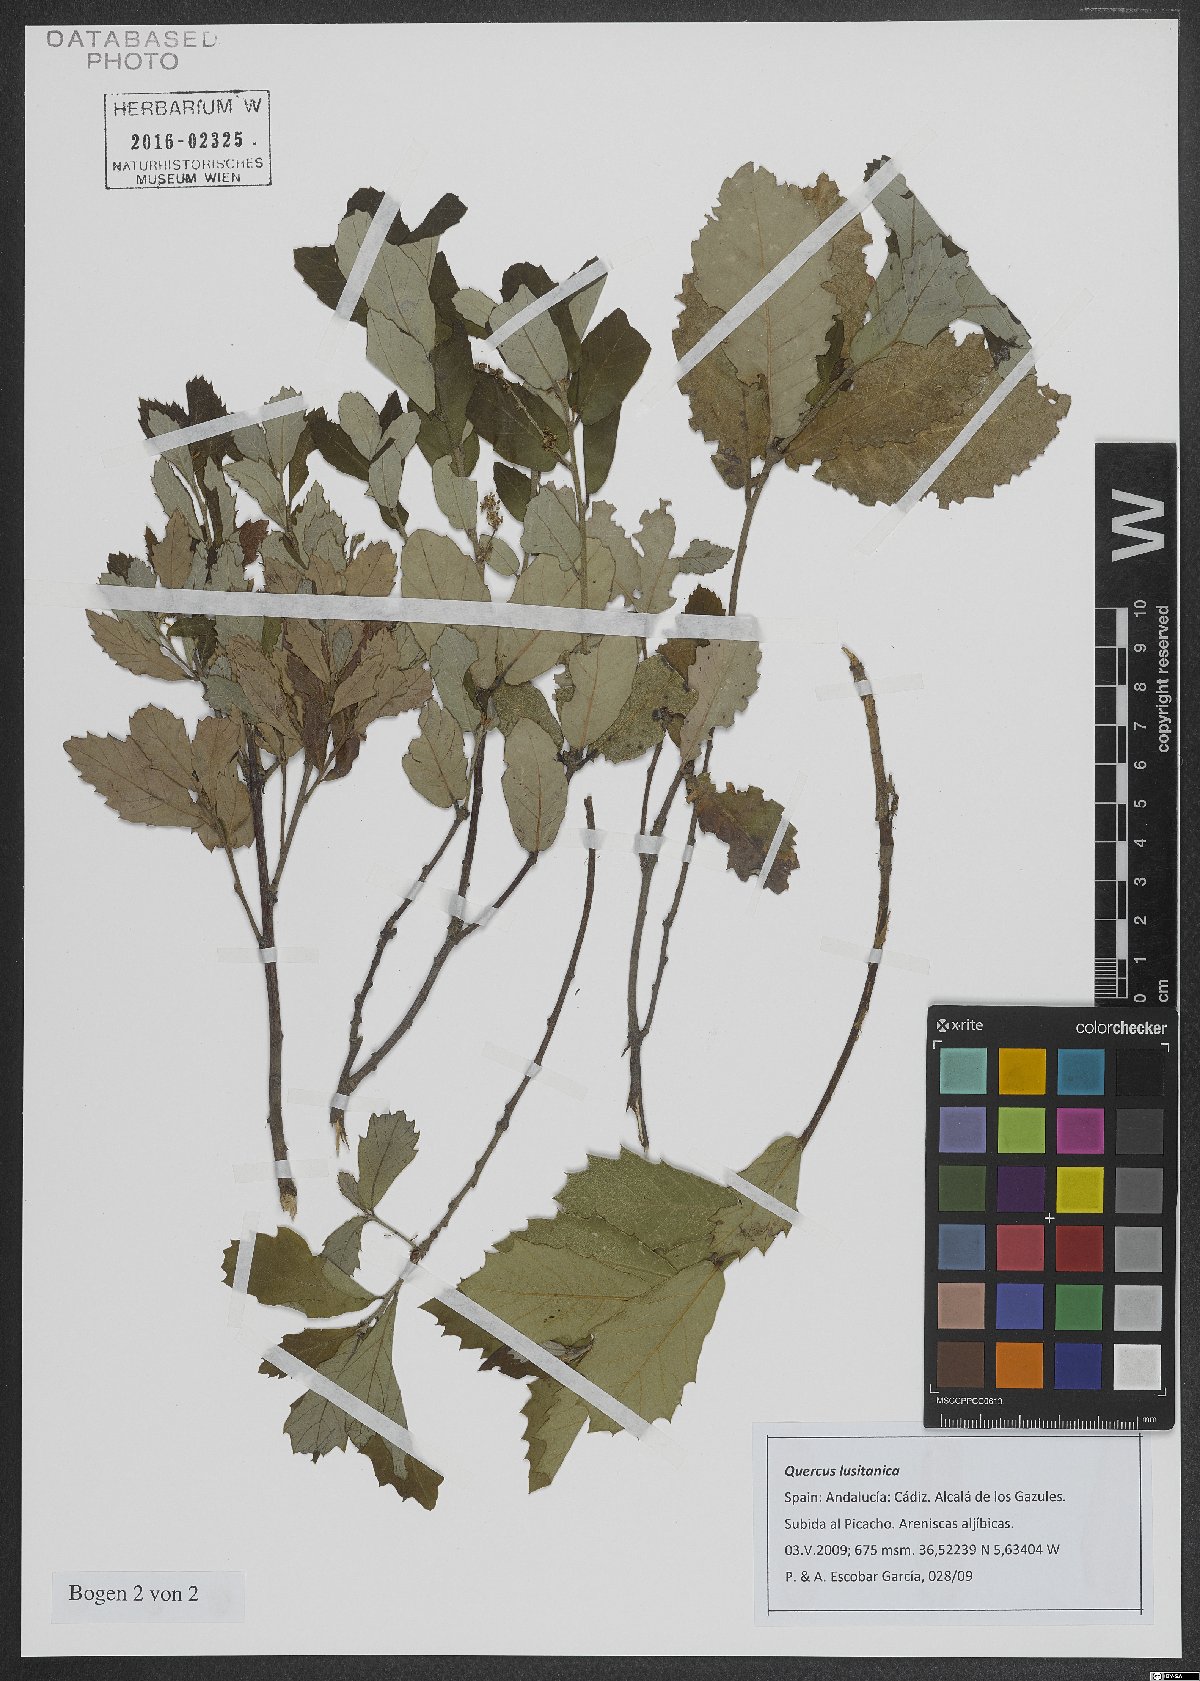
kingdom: Plantae
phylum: Tracheophyta
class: Magnoliopsida
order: Fagales
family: Fagaceae
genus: Quercus
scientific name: Quercus lusitanica
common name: Scrub gall oak
